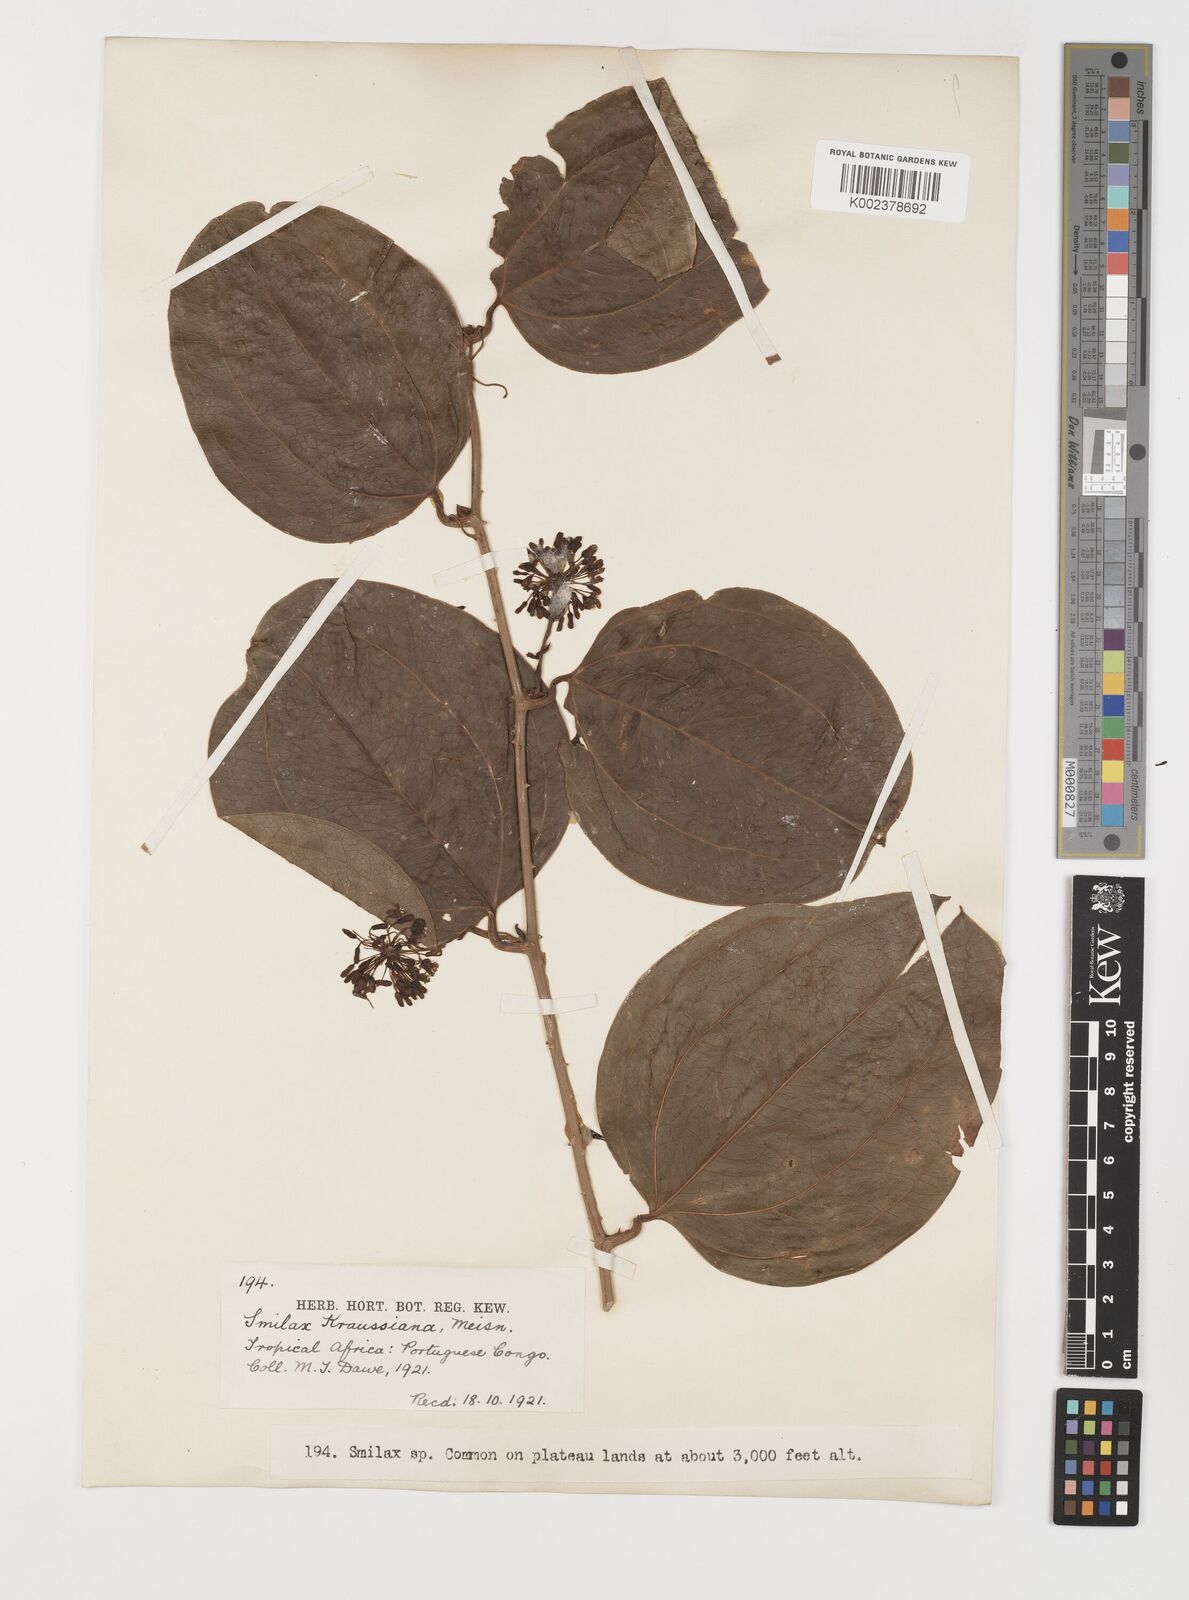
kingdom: Plantae
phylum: Tracheophyta
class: Liliopsida
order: Liliales
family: Smilacaceae
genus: Smilax
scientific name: Smilax anceps
